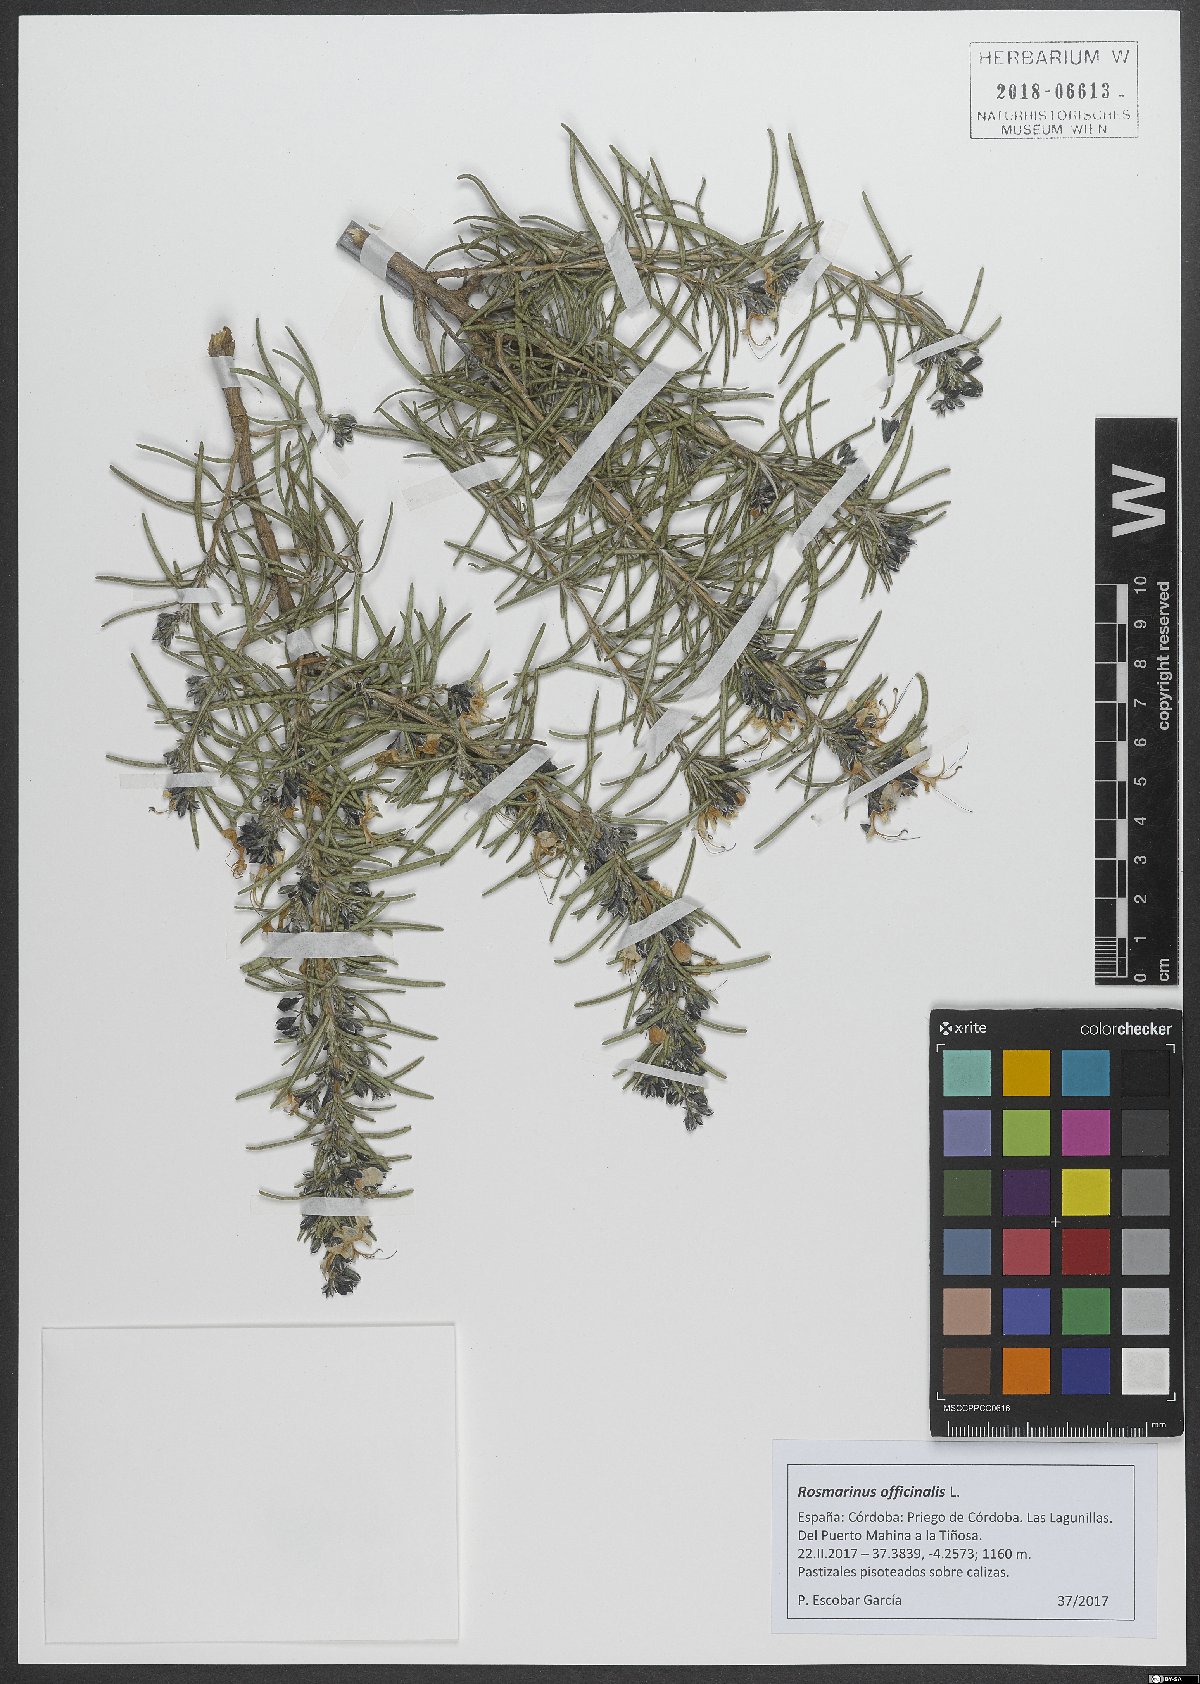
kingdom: Plantae
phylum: Tracheophyta
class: Magnoliopsida
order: Lamiales
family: Lamiaceae
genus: Salvia
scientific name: Salvia rosmarinus
